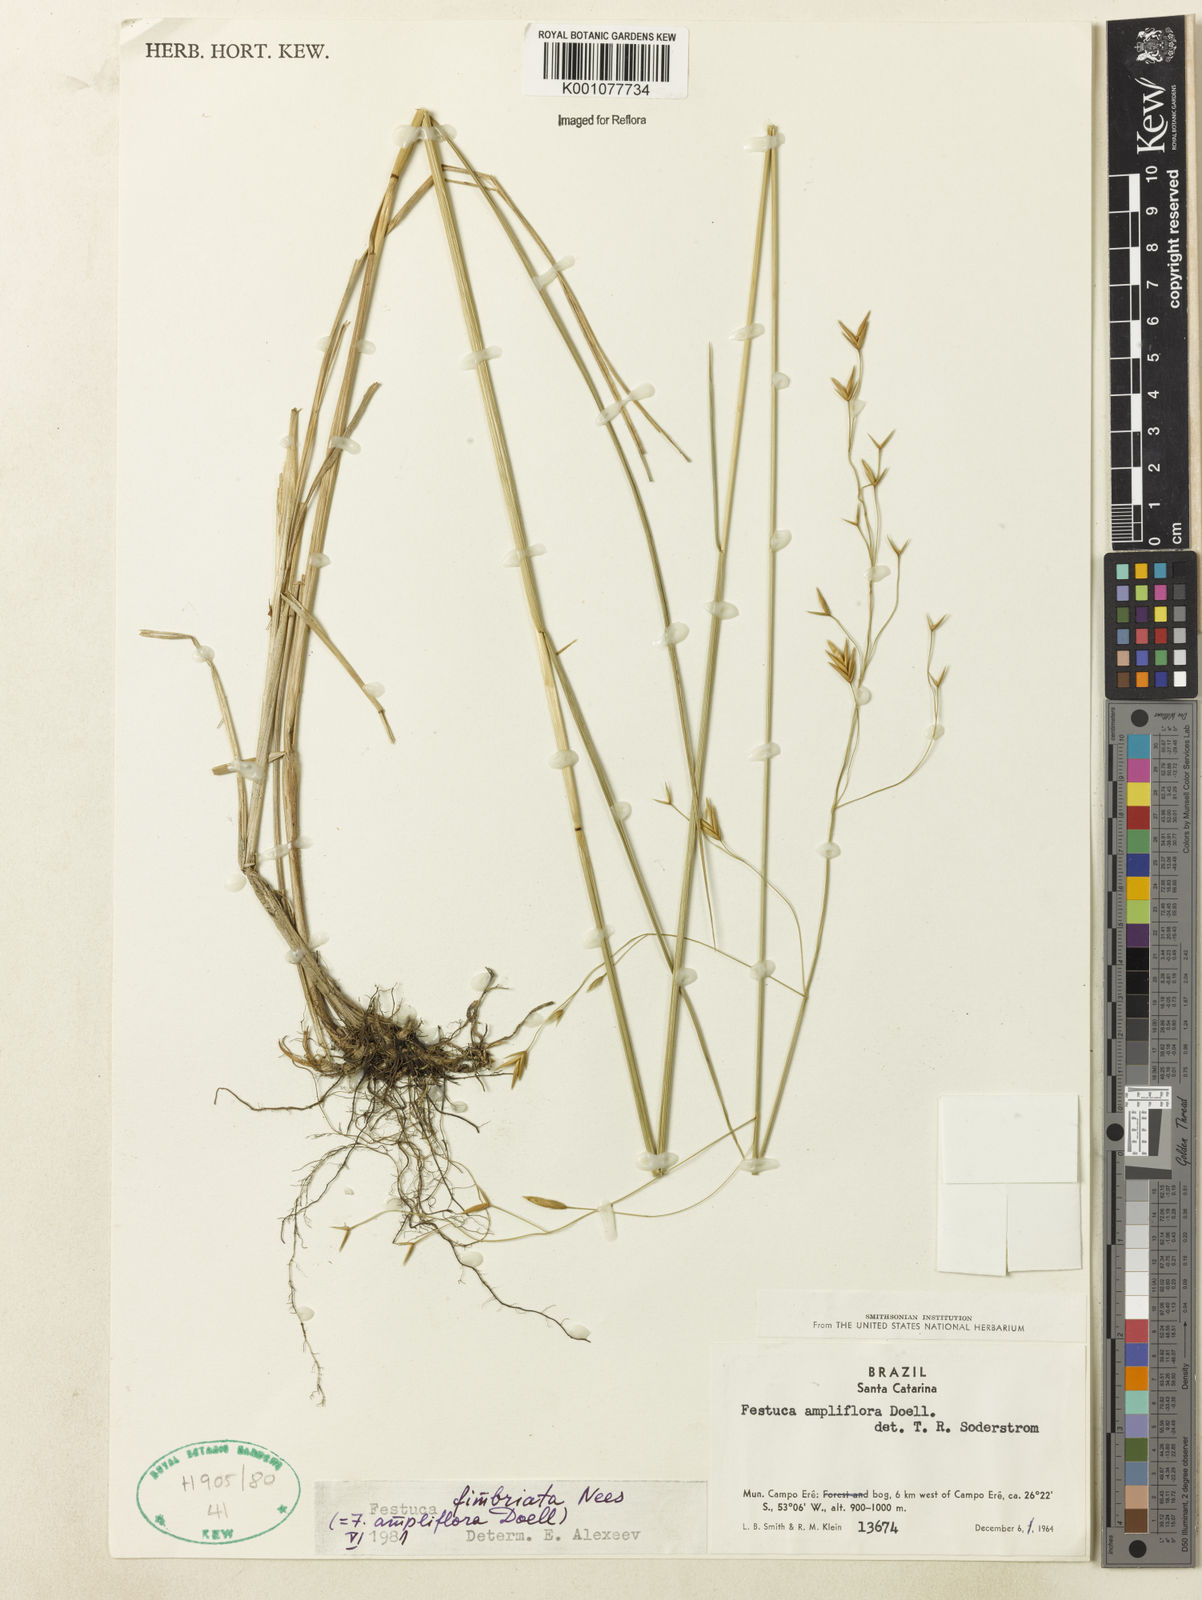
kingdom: Plantae
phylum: Tracheophyta
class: Liliopsida
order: Poales
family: Poaceae
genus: Festuca
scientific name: Festuca fimbriata
